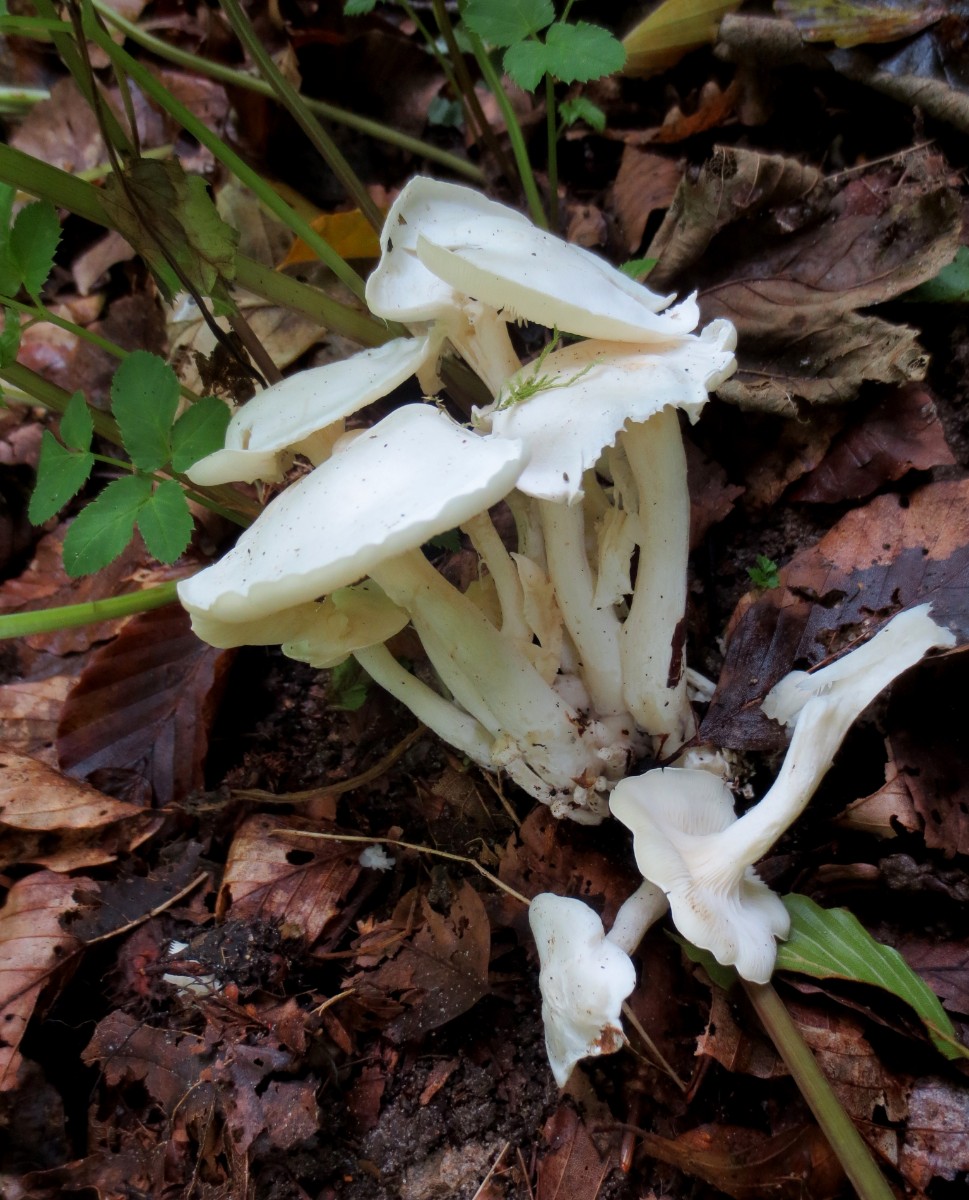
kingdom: Fungi
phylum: Basidiomycota
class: Agaricomycetes
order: Agaricales
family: Tricholomataceae
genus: Leucocybe
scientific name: Leucocybe connata
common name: knippe-tragthat
